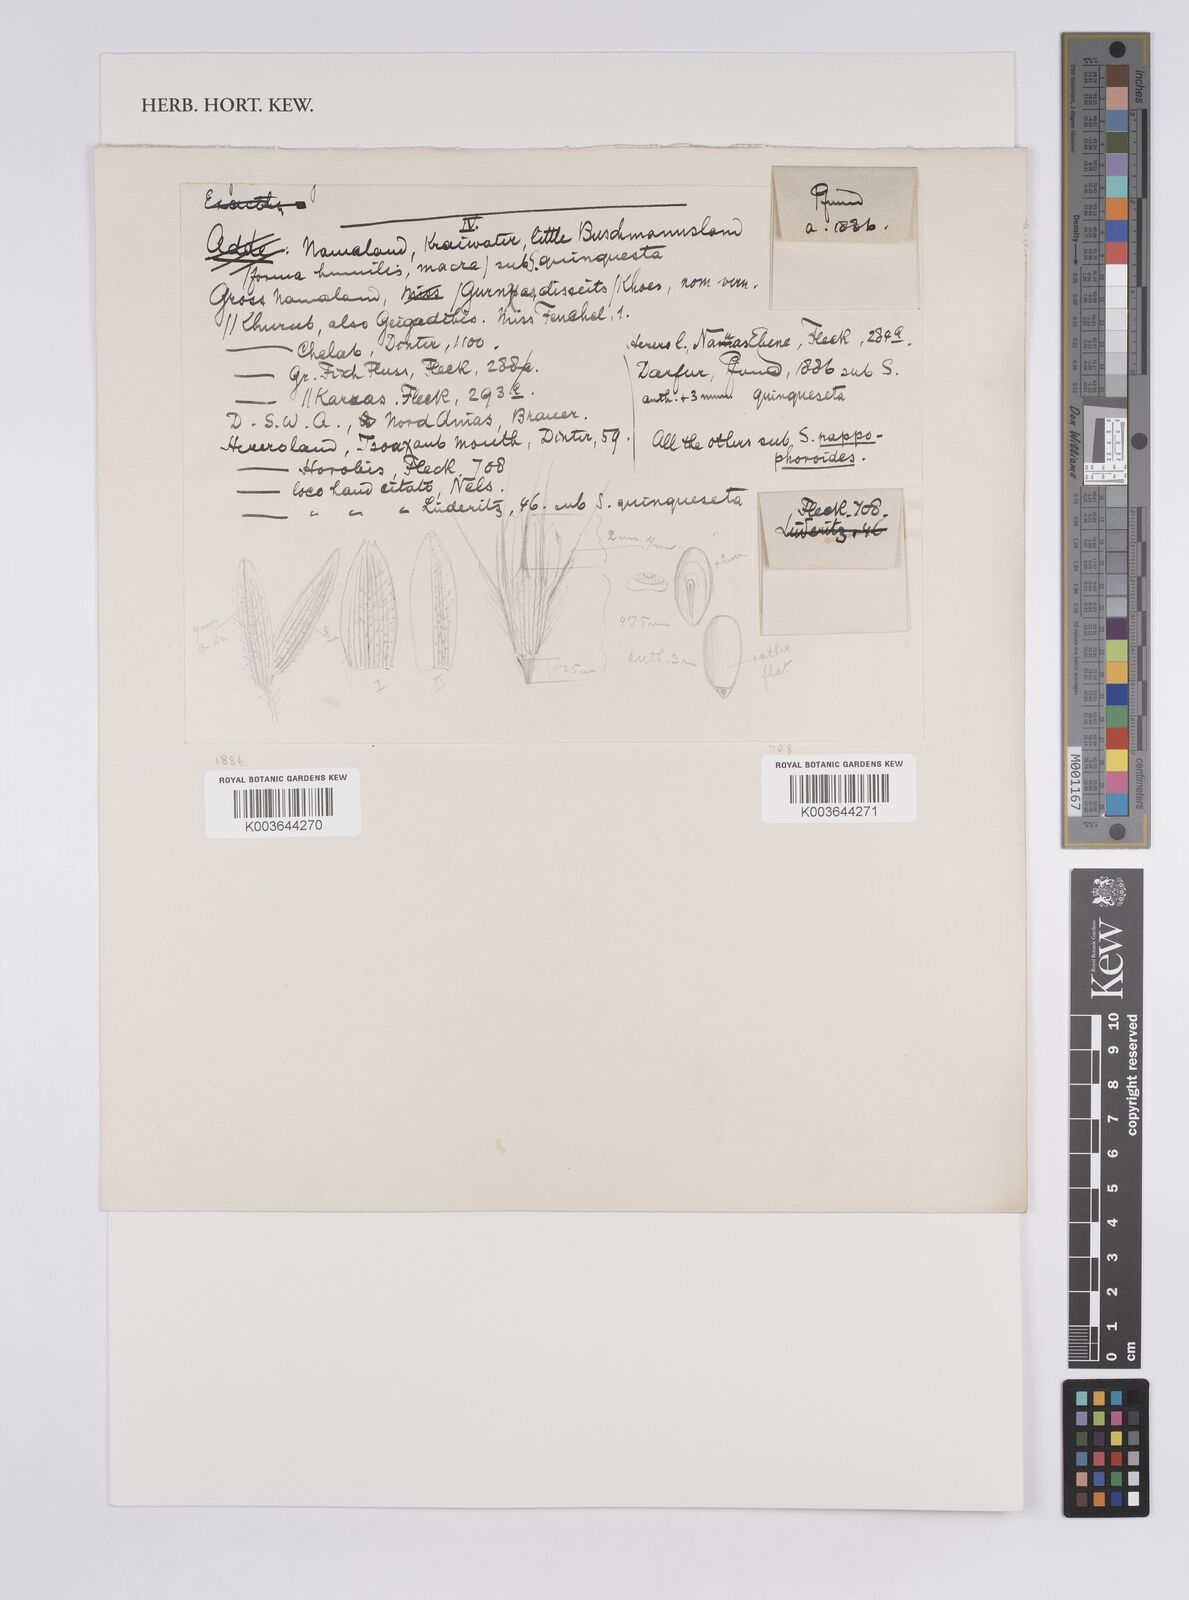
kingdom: Plantae
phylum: Tracheophyta
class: Liliopsida
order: Poales
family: Poaceae
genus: Schmidtia
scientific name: Schmidtia kalahariensis
